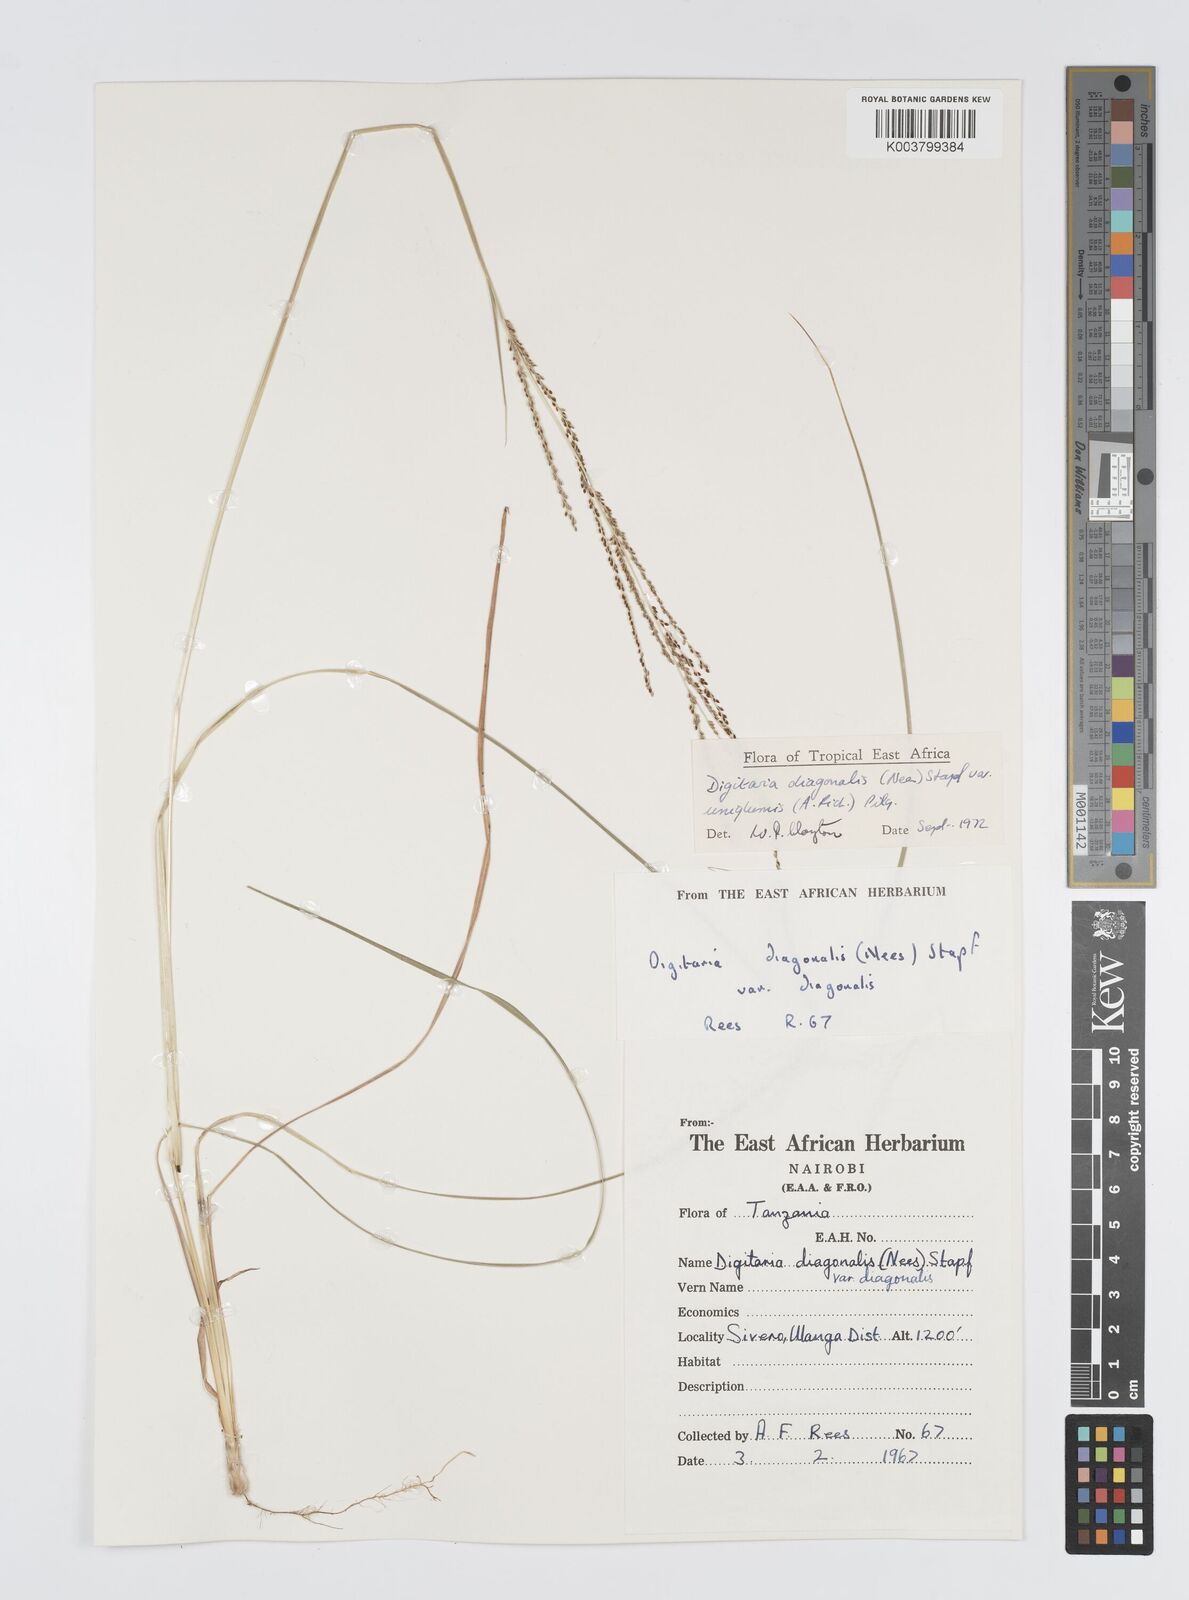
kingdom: Plantae
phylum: Tracheophyta
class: Liliopsida
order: Poales
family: Poaceae
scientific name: Poaceae
